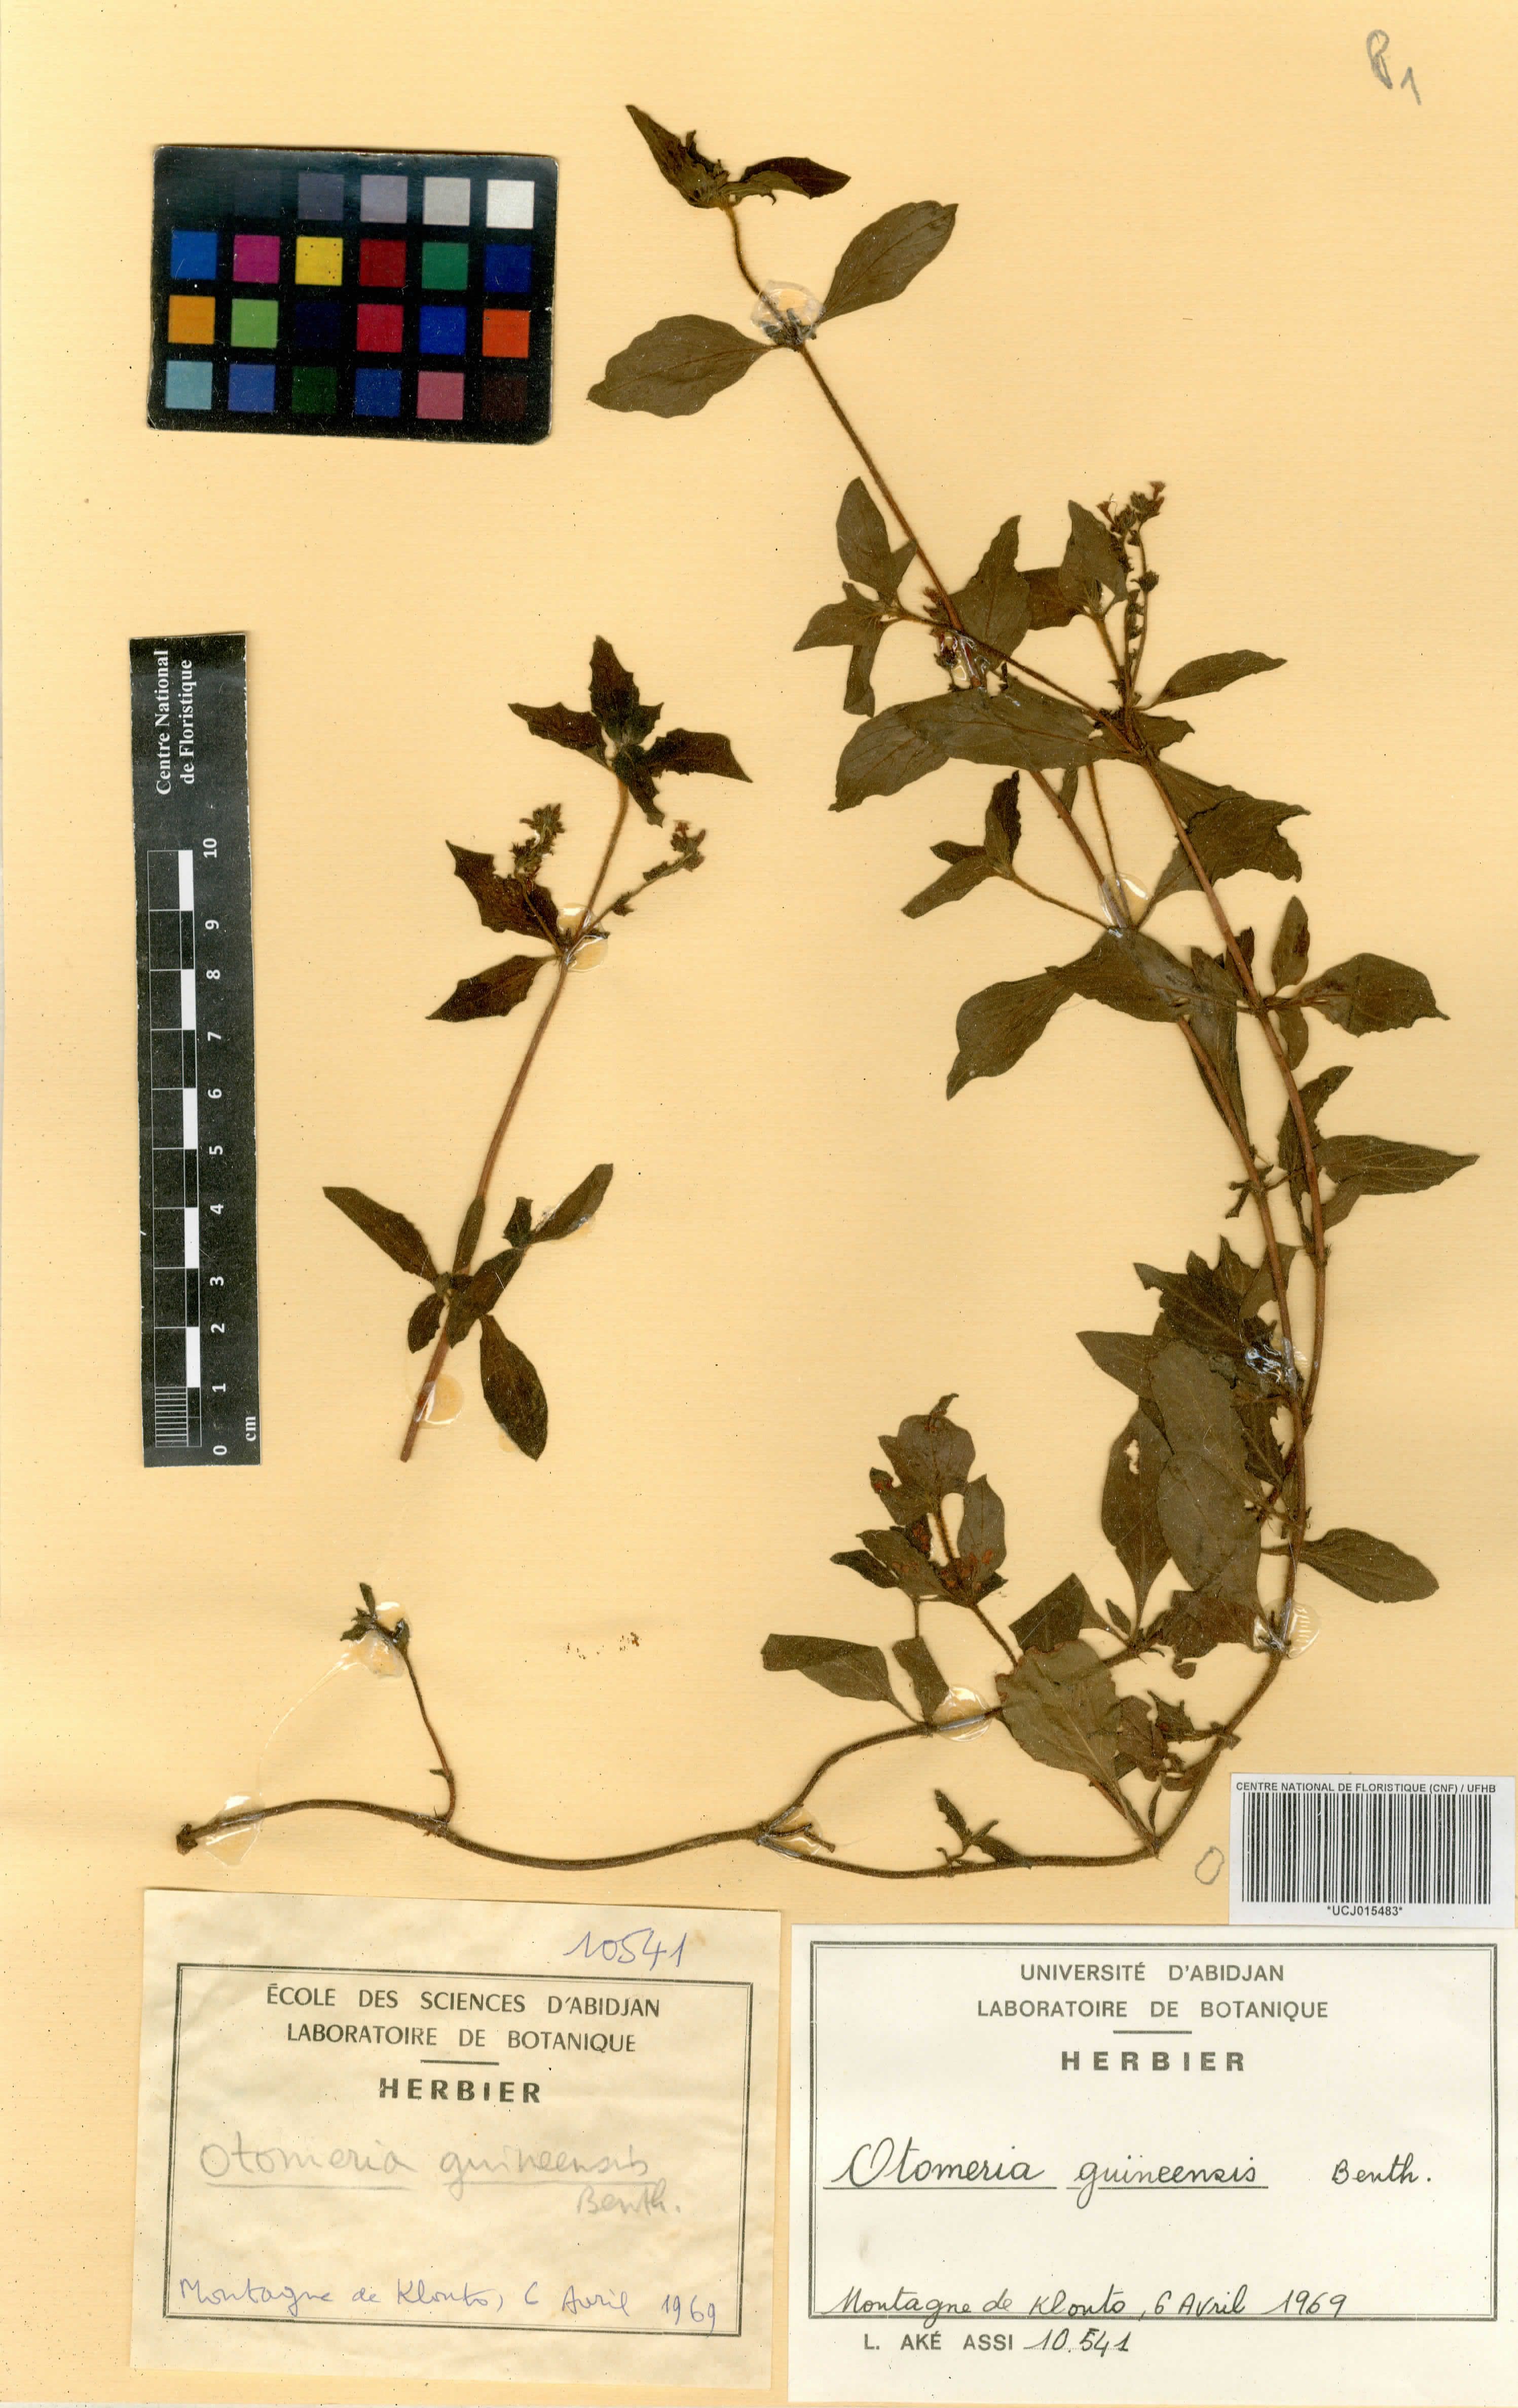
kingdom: Plantae
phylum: Tracheophyta
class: Magnoliopsida
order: Gentianales
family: Rubiaceae
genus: Otomeria
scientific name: Otomeria guineensis
